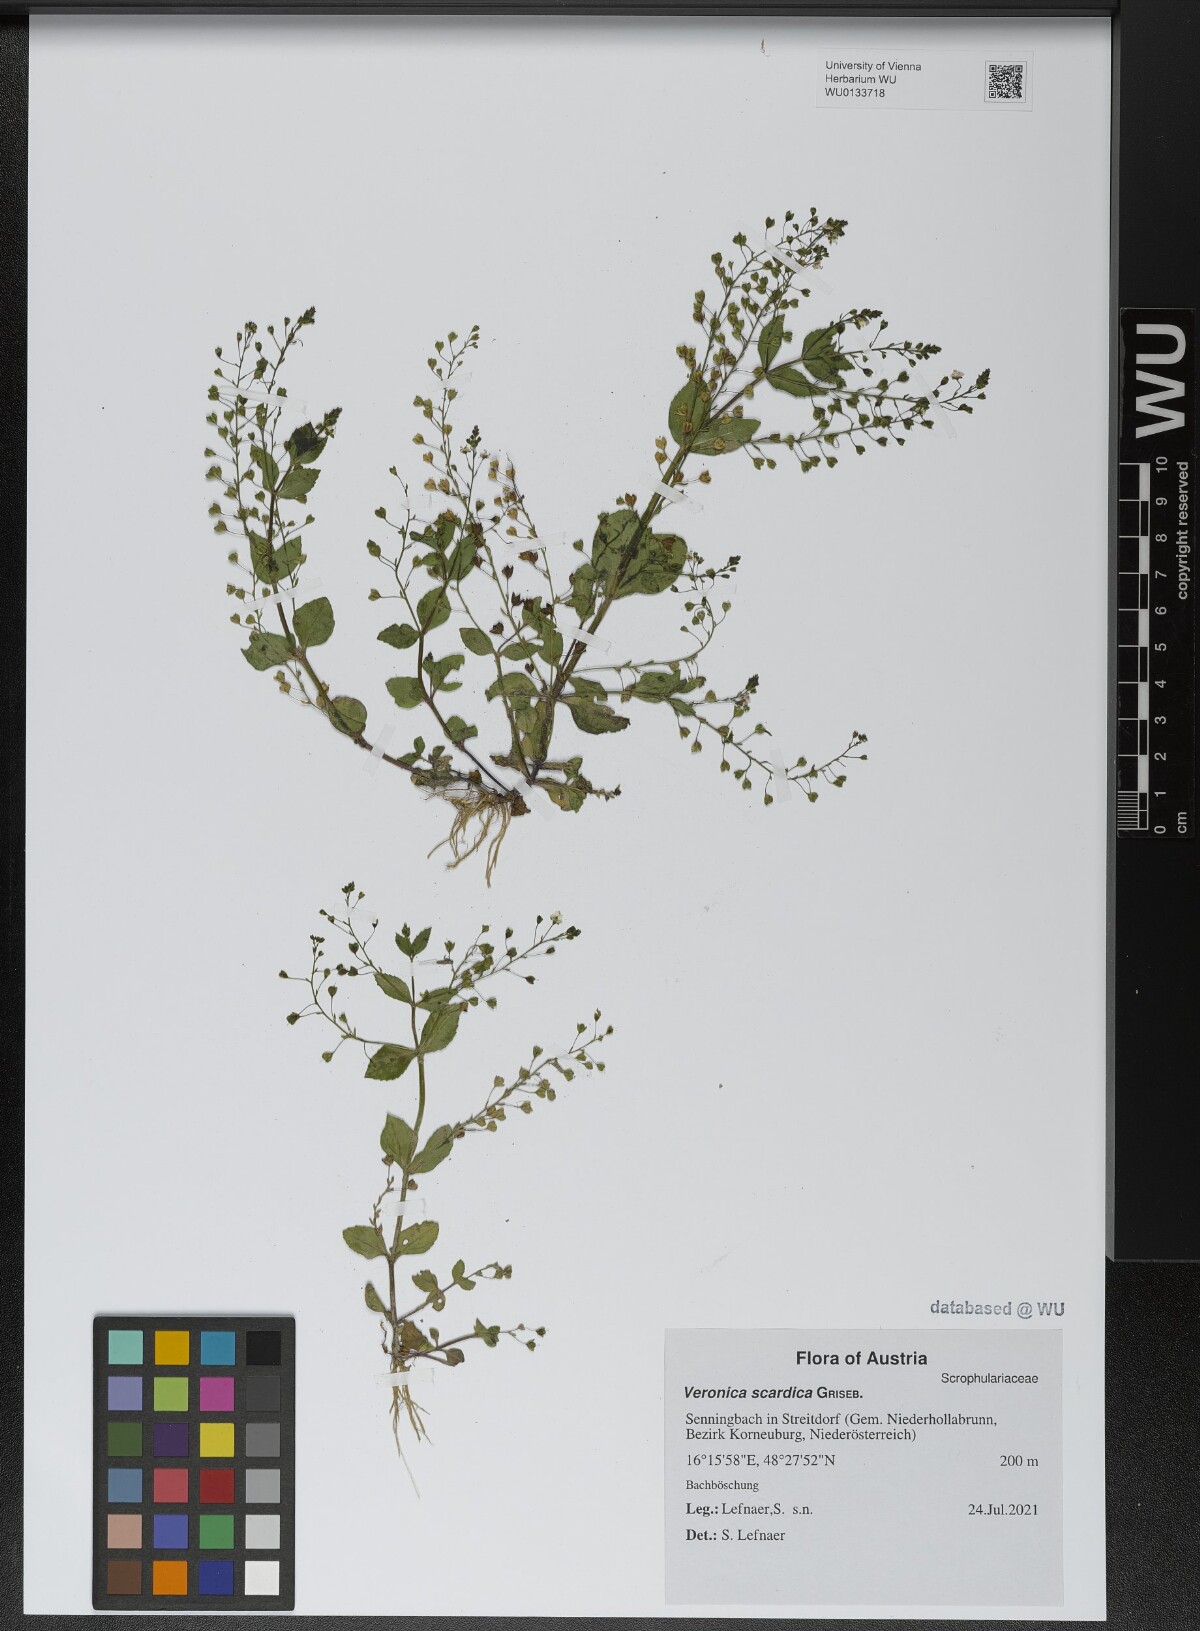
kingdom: Plantae
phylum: Tracheophyta
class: Magnoliopsida
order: Lamiales
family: Plantaginaceae
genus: Veronica
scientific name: Veronica scardica
